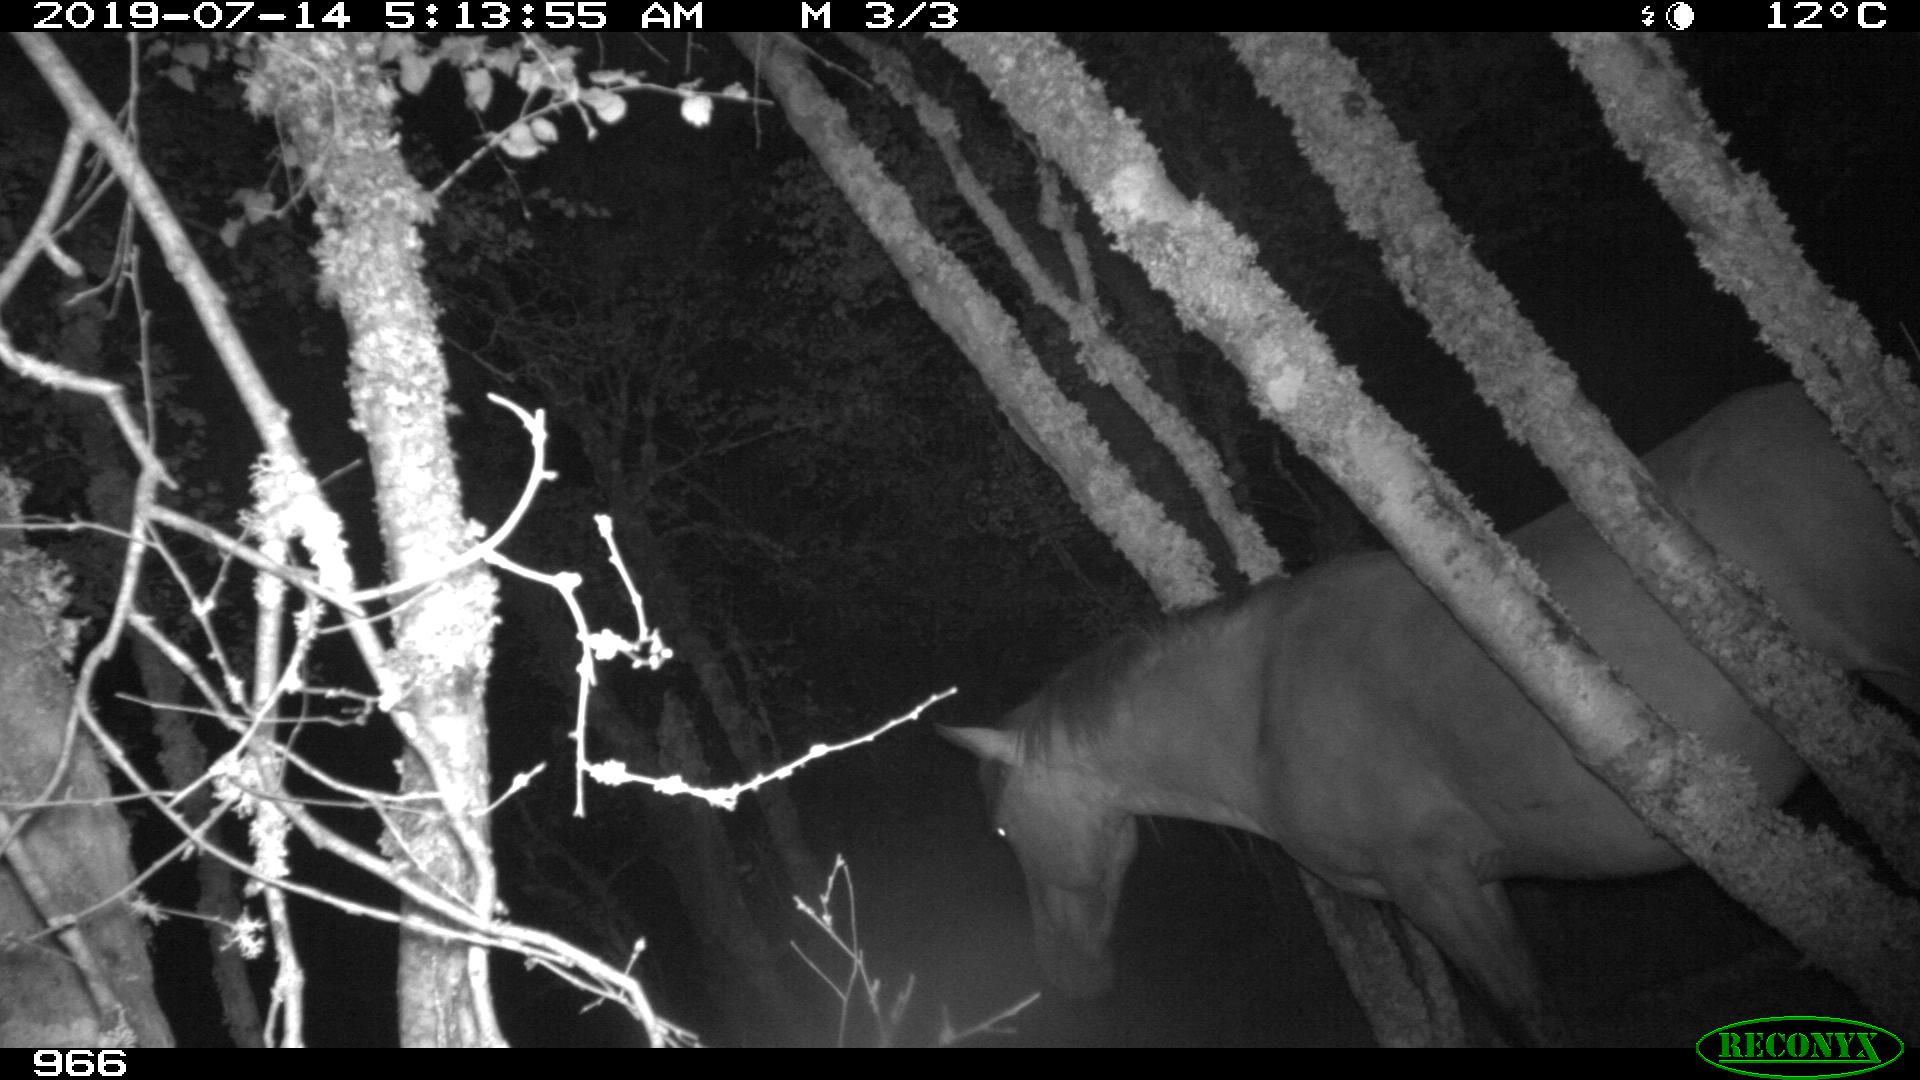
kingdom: Animalia
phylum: Chordata
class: Mammalia
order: Perissodactyla
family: Equidae
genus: Equus
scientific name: Equus caballus
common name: Horse
